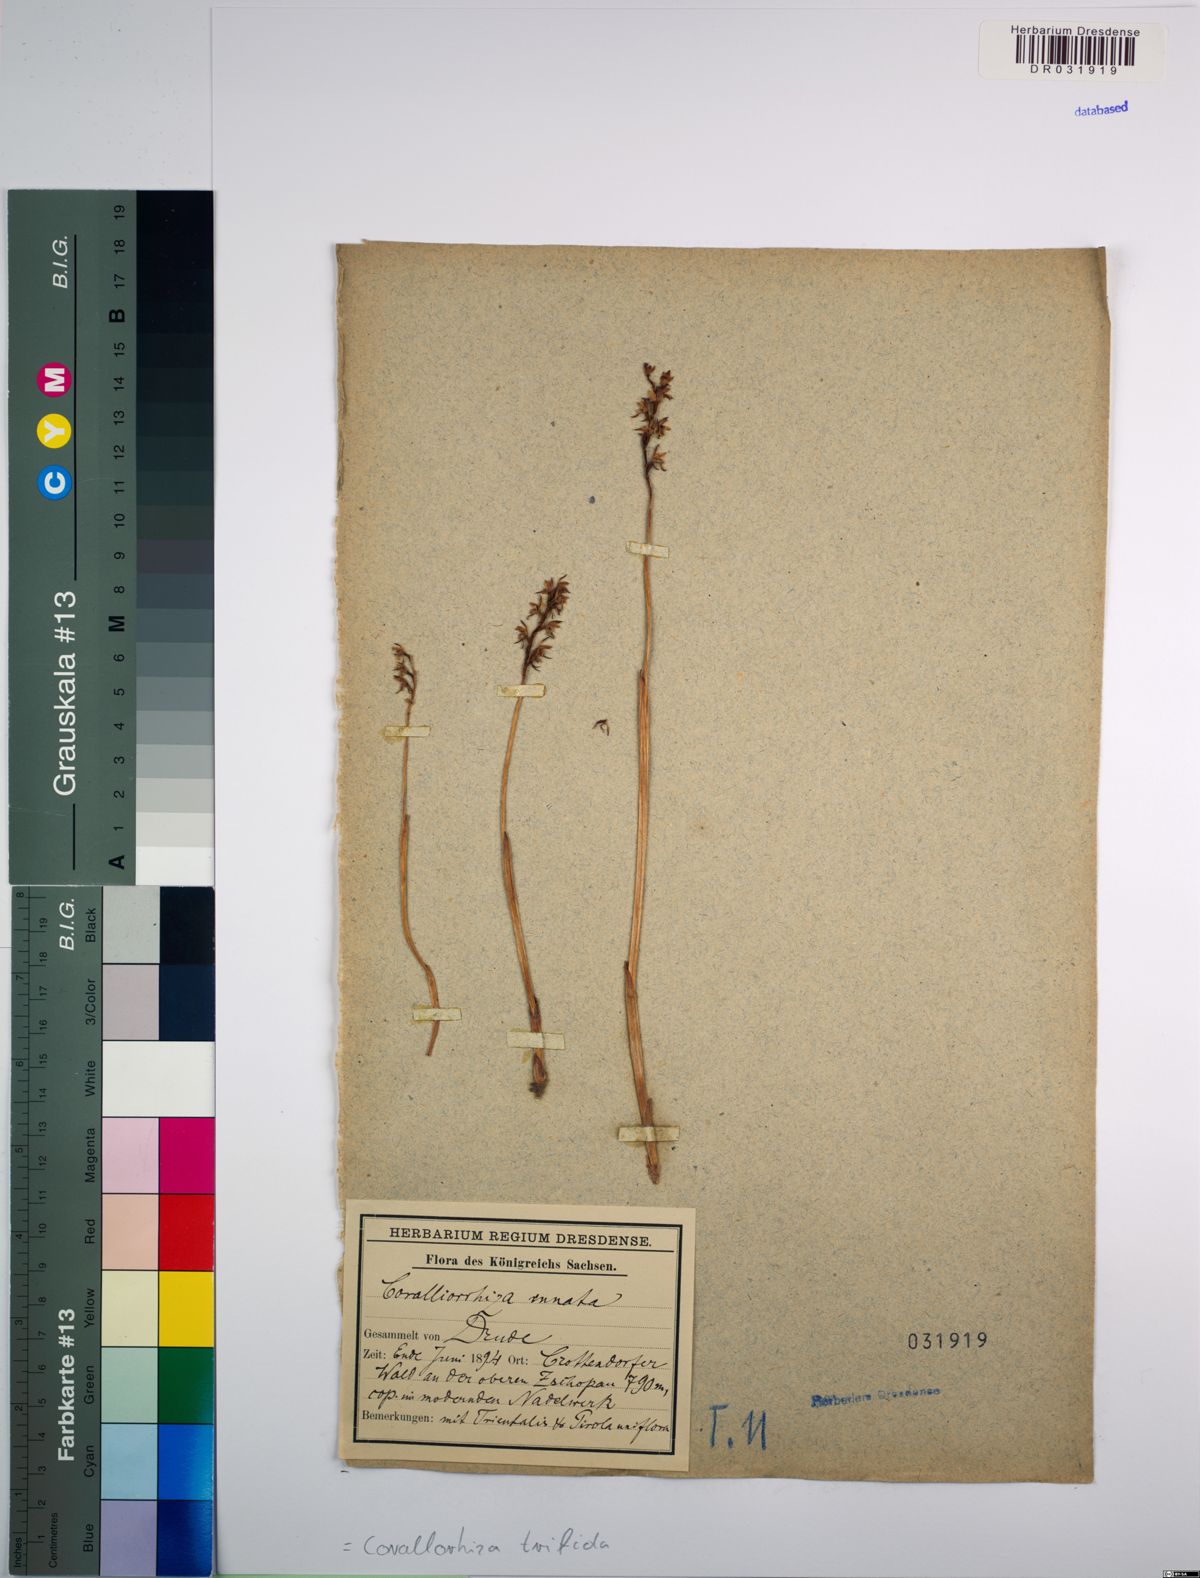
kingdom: Plantae
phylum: Tracheophyta
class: Liliopsida
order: Asparagales
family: Orchidaceae
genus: Corallorhiza
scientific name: Corallorhiza trifida
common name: Yellow coralroot
